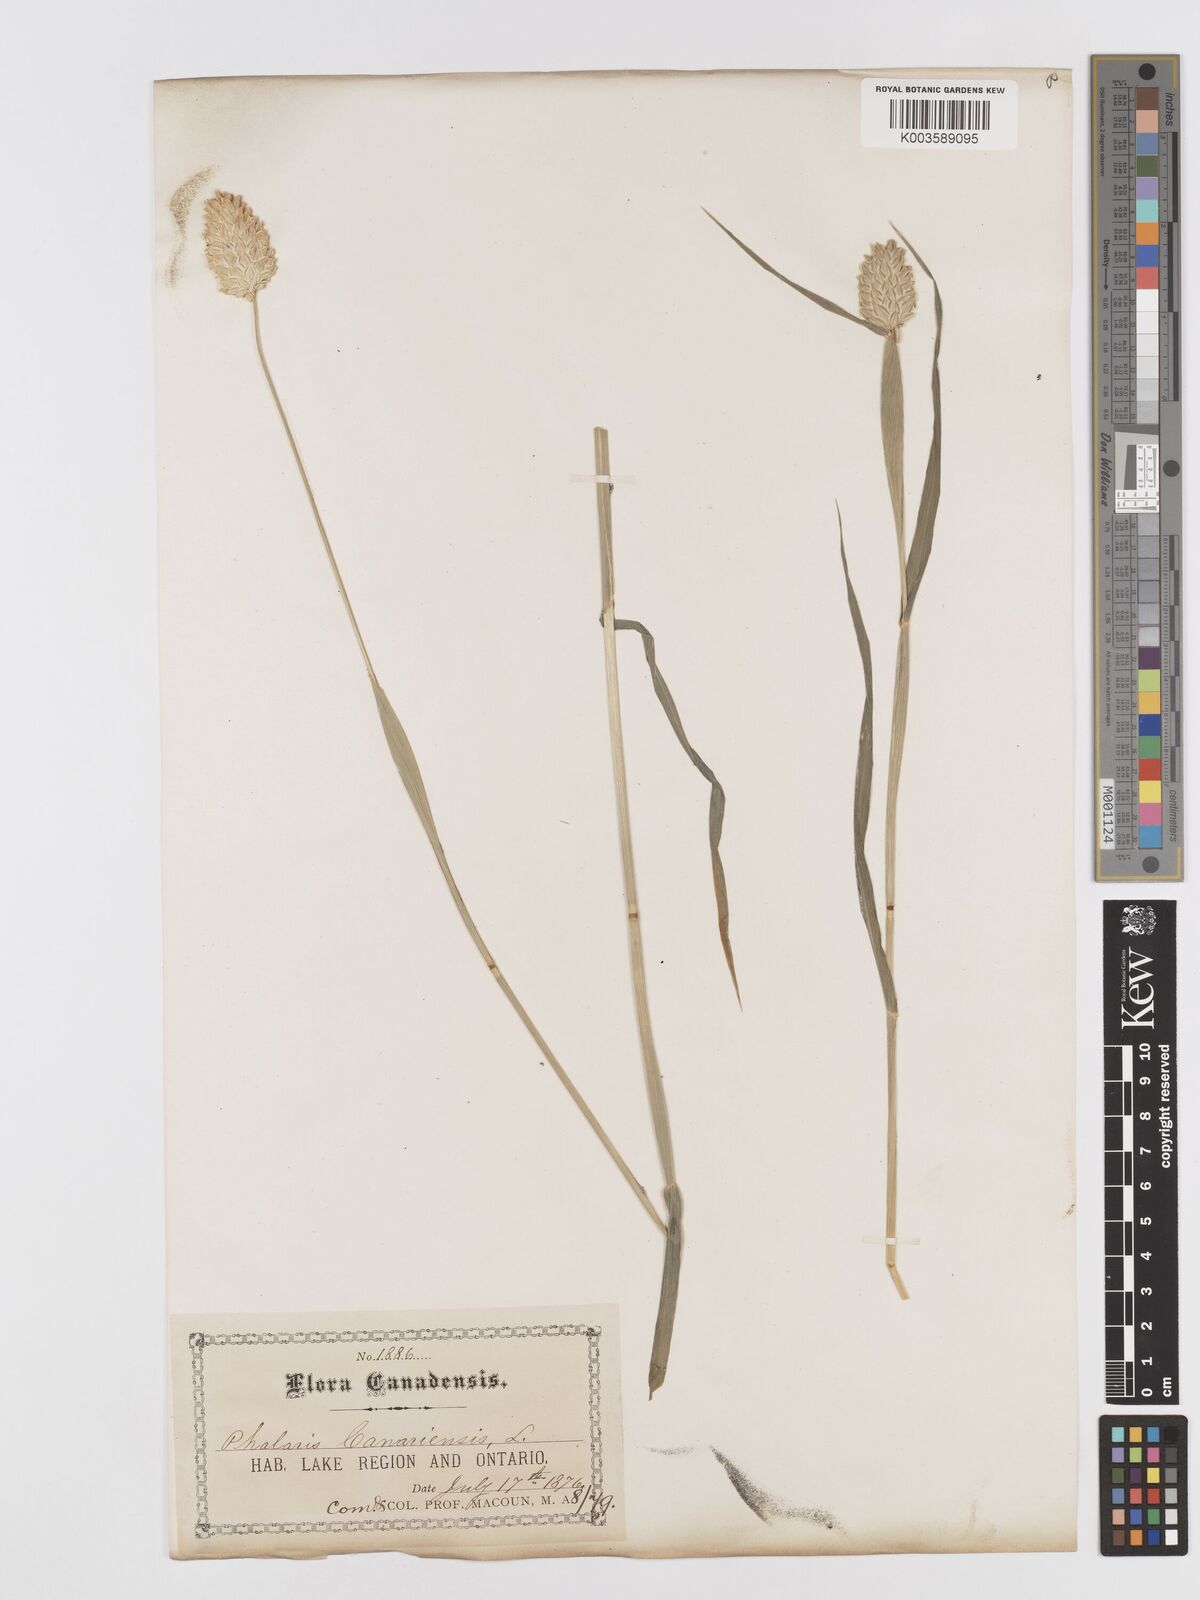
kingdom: Plantae
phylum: Tracheophyta
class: Liliopsida
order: Poales
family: Poaceae
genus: Phalaris
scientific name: Phalaris canariensis
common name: Annual canarygrass
